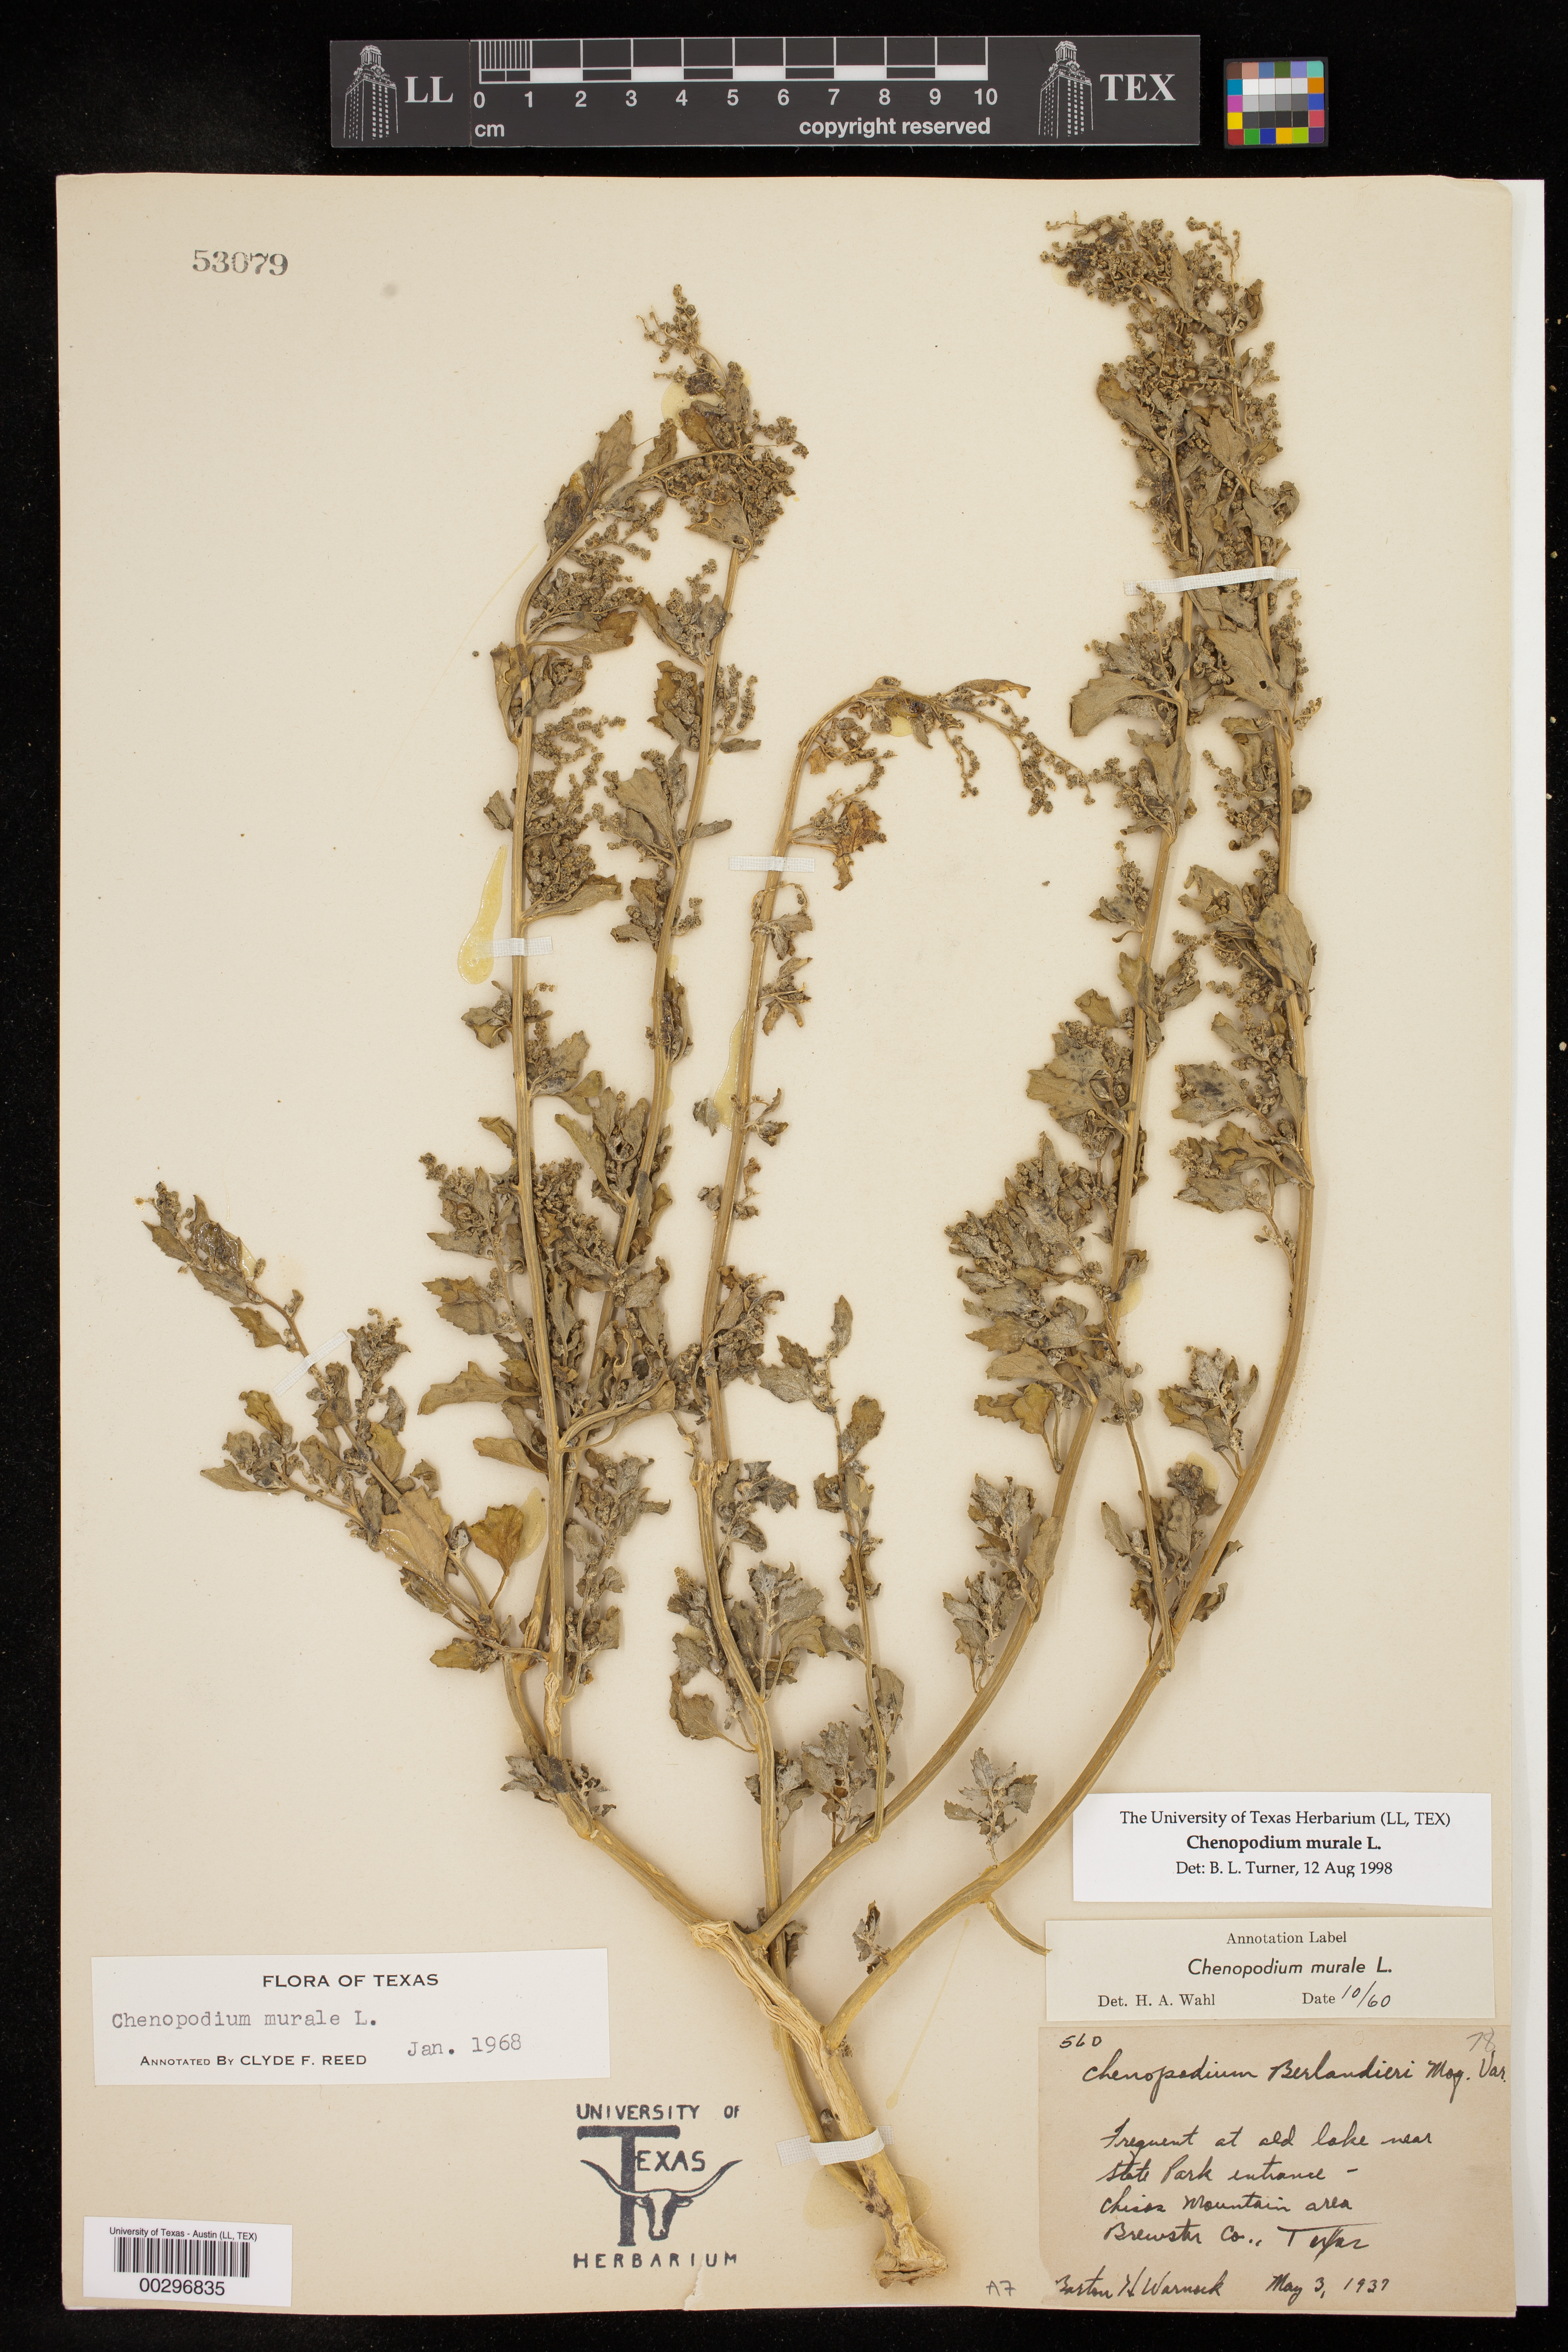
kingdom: Plantae
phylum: Tracheophyta
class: Magnoliopsida
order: Caryophyllales
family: Amaranthaceae
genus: Chenopodiastrum
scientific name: Chenopodiastrum murale
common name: Sowbane
